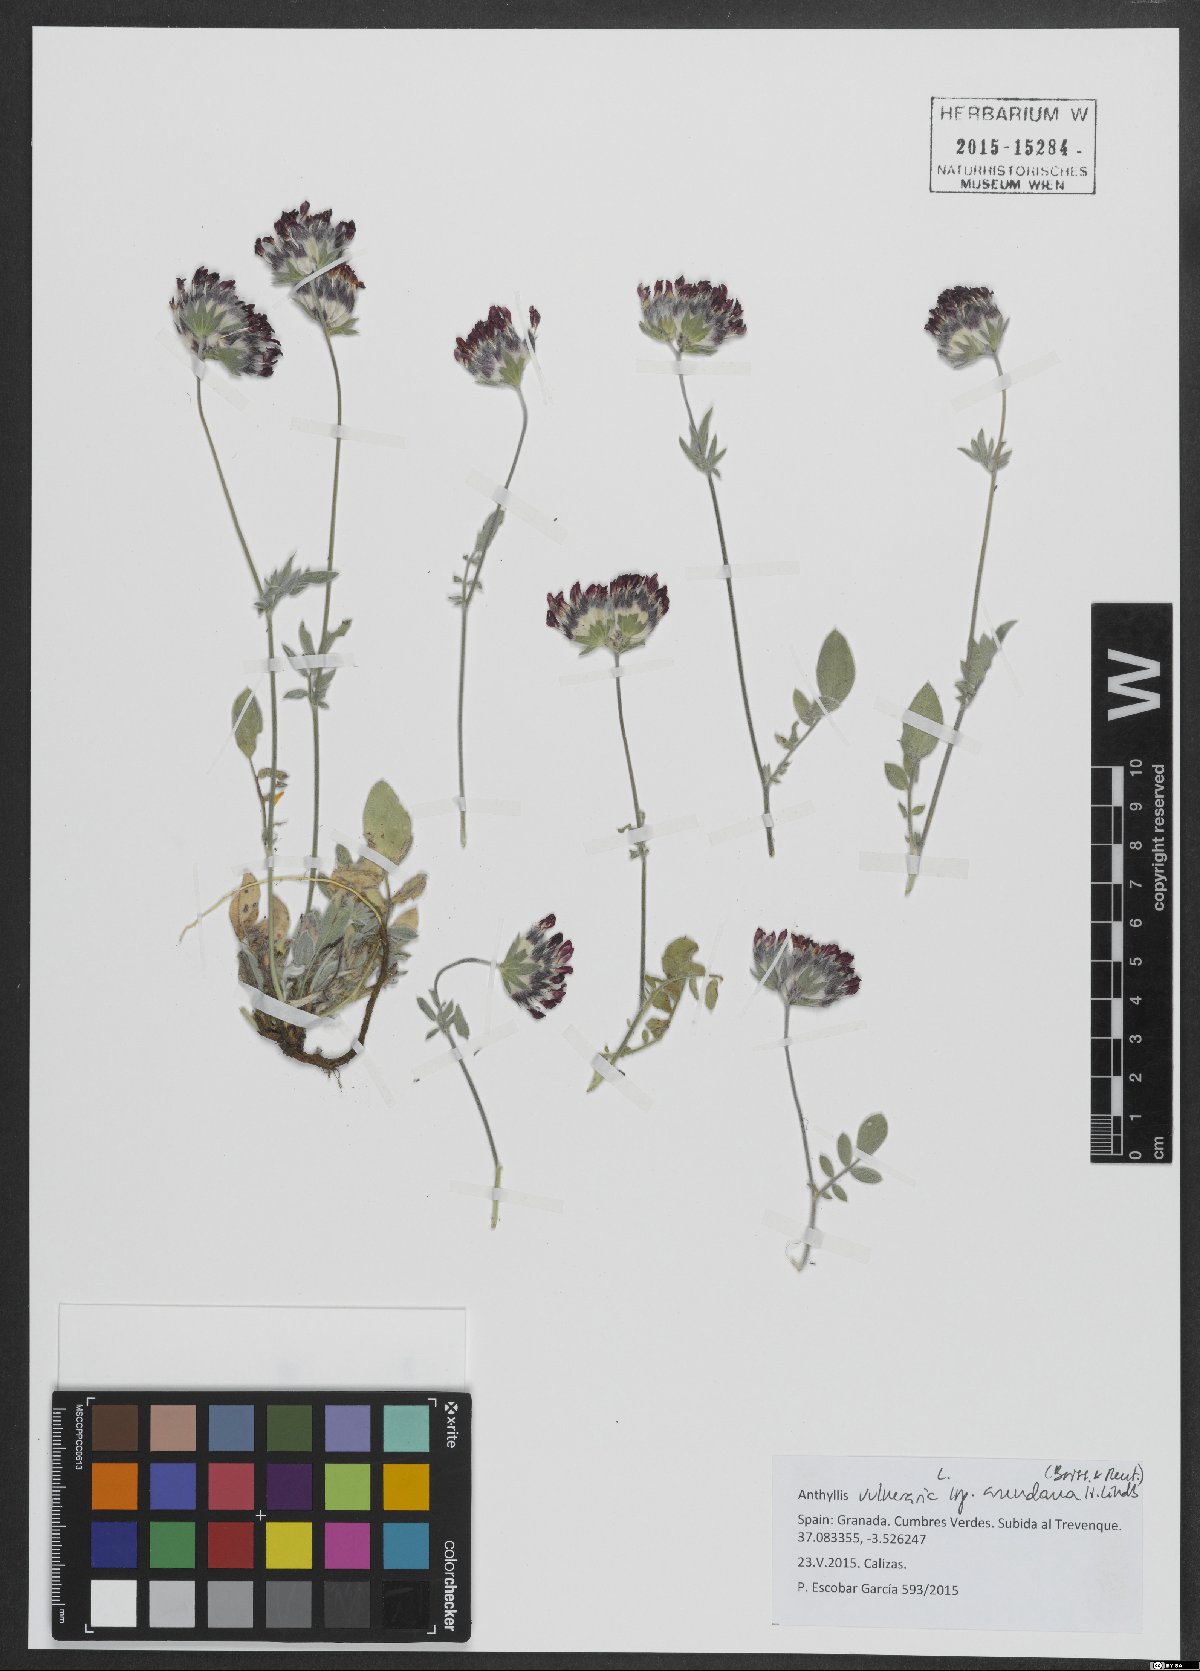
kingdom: Plantae
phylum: Tracheophyta
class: Magnoliopsida
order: Fabales
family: Fabaceae
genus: Anthyllis
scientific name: Anthyllis vulneraria
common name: Kidney vetch
